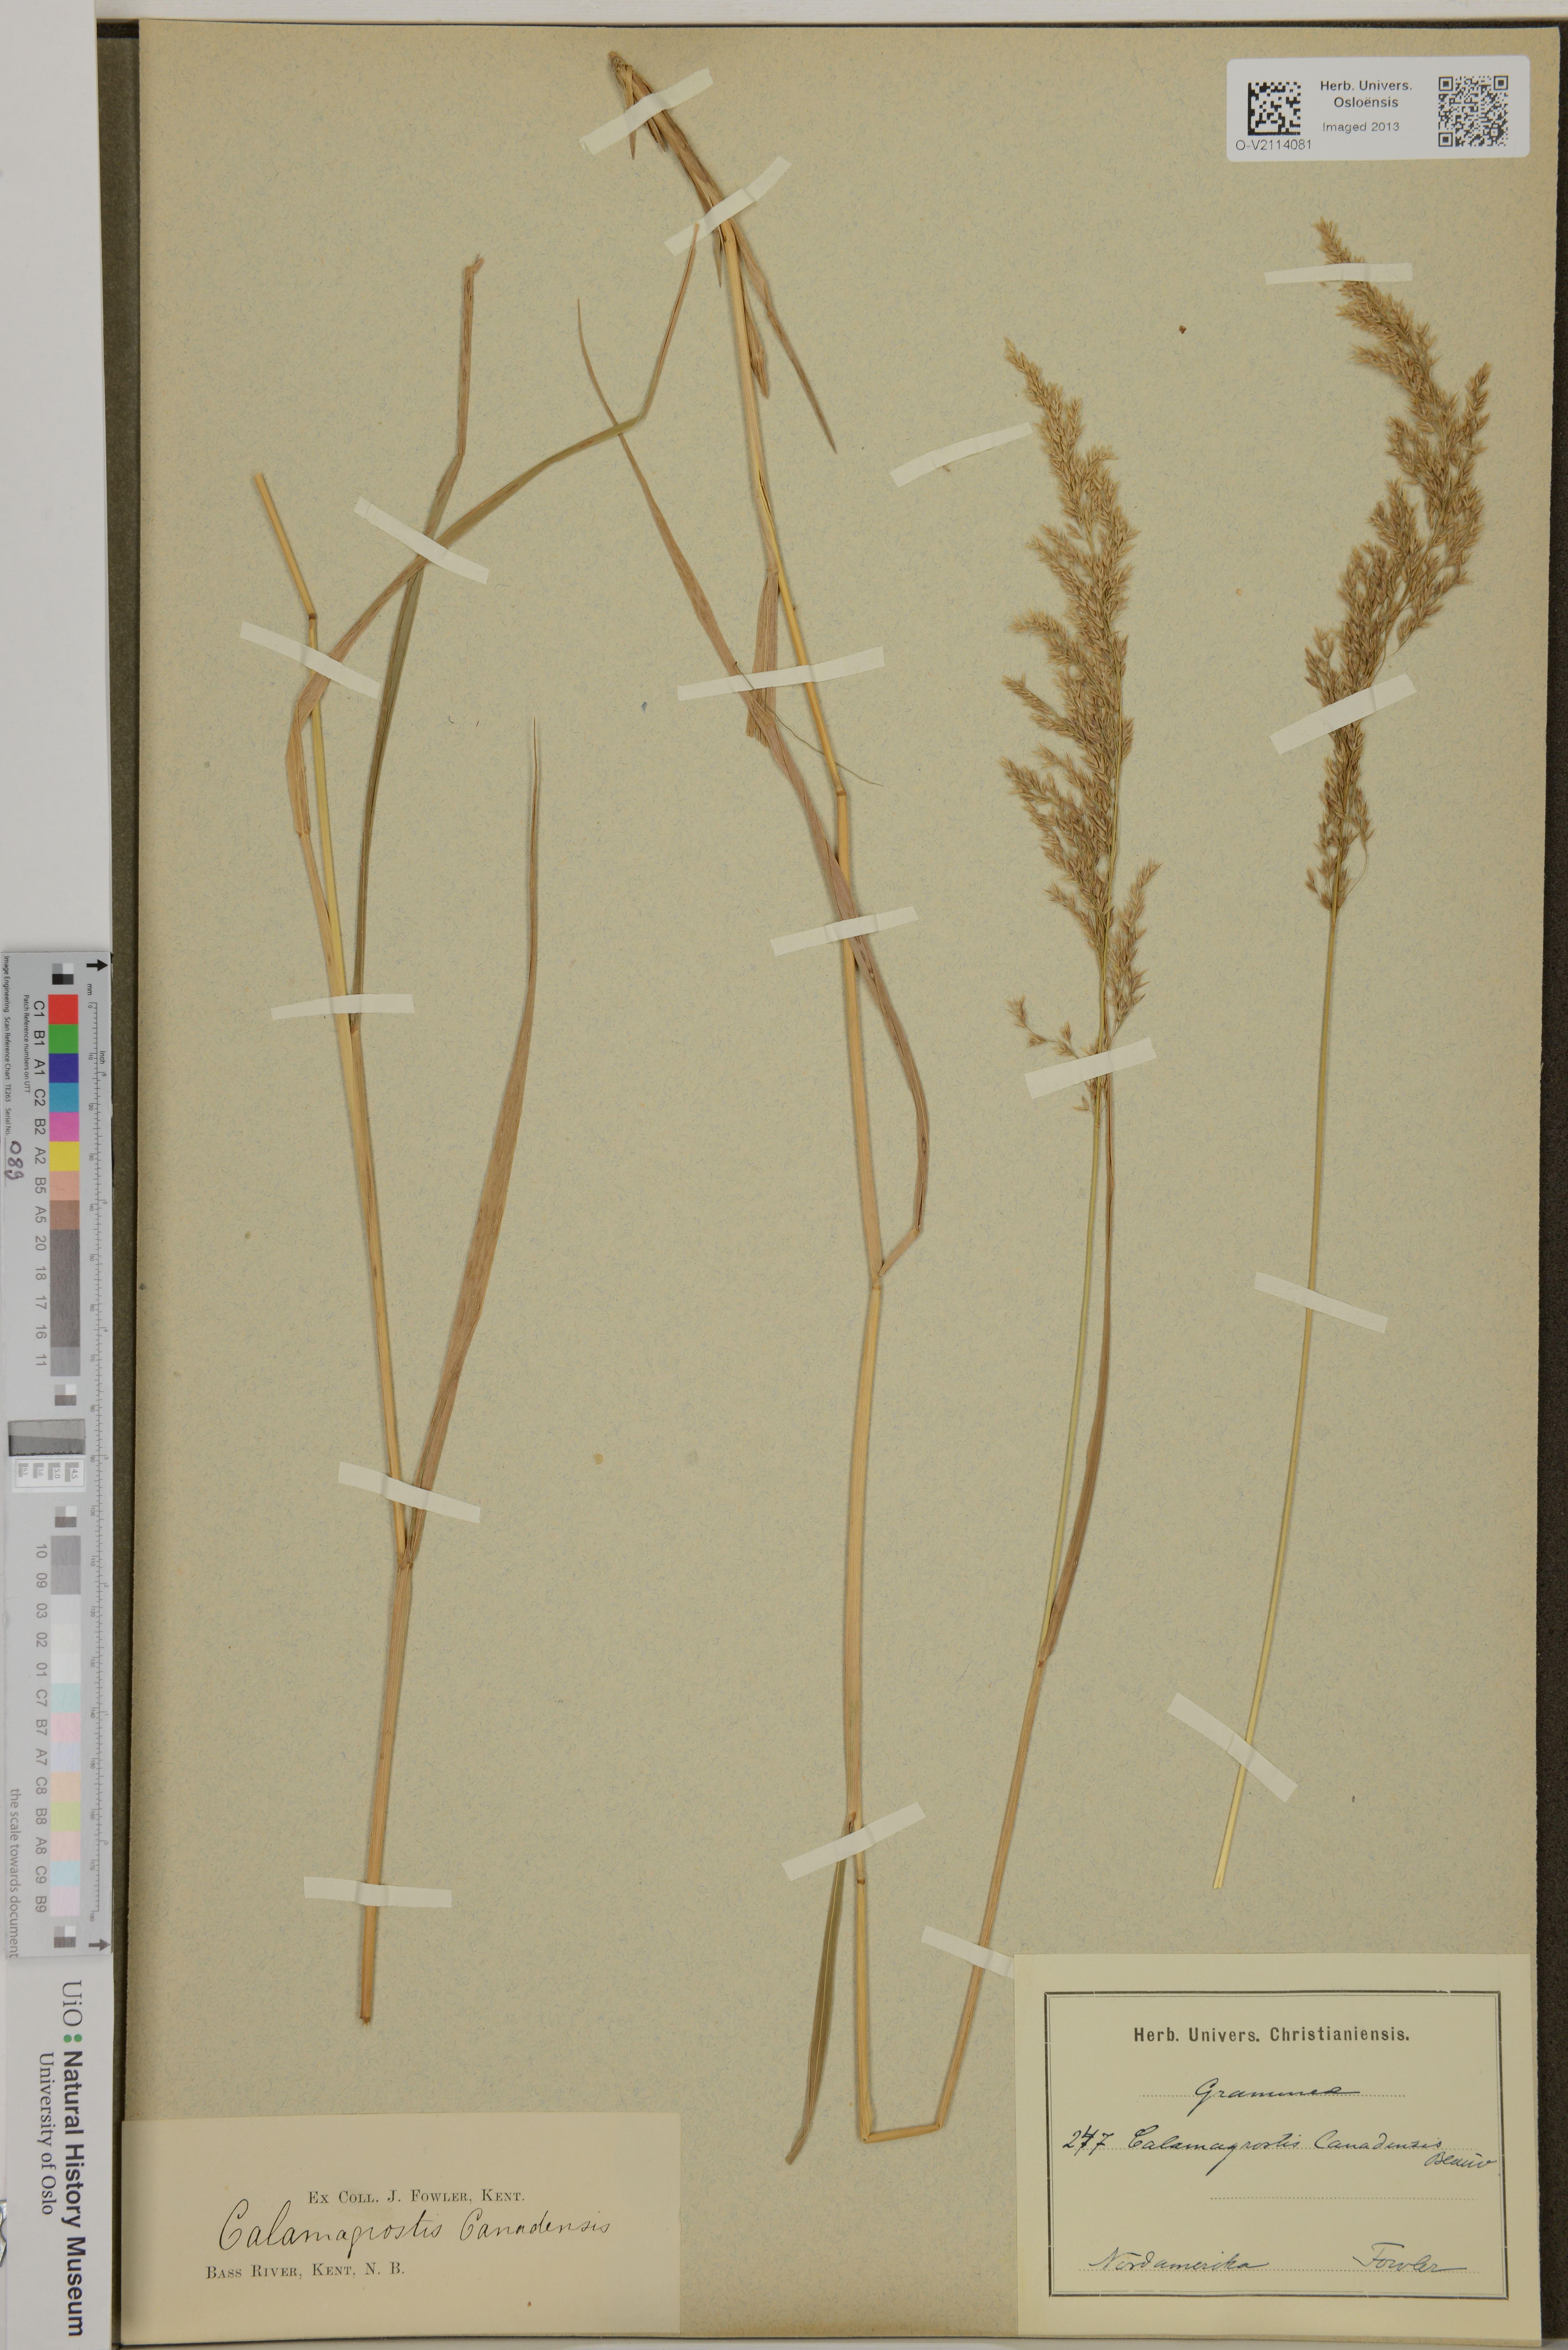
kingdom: Plantae
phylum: Tracheophyta
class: Liliopsida
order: Poales
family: Poaceae
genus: Calamagrostis
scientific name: Calamagrostis canescens
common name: Purple small-reed
